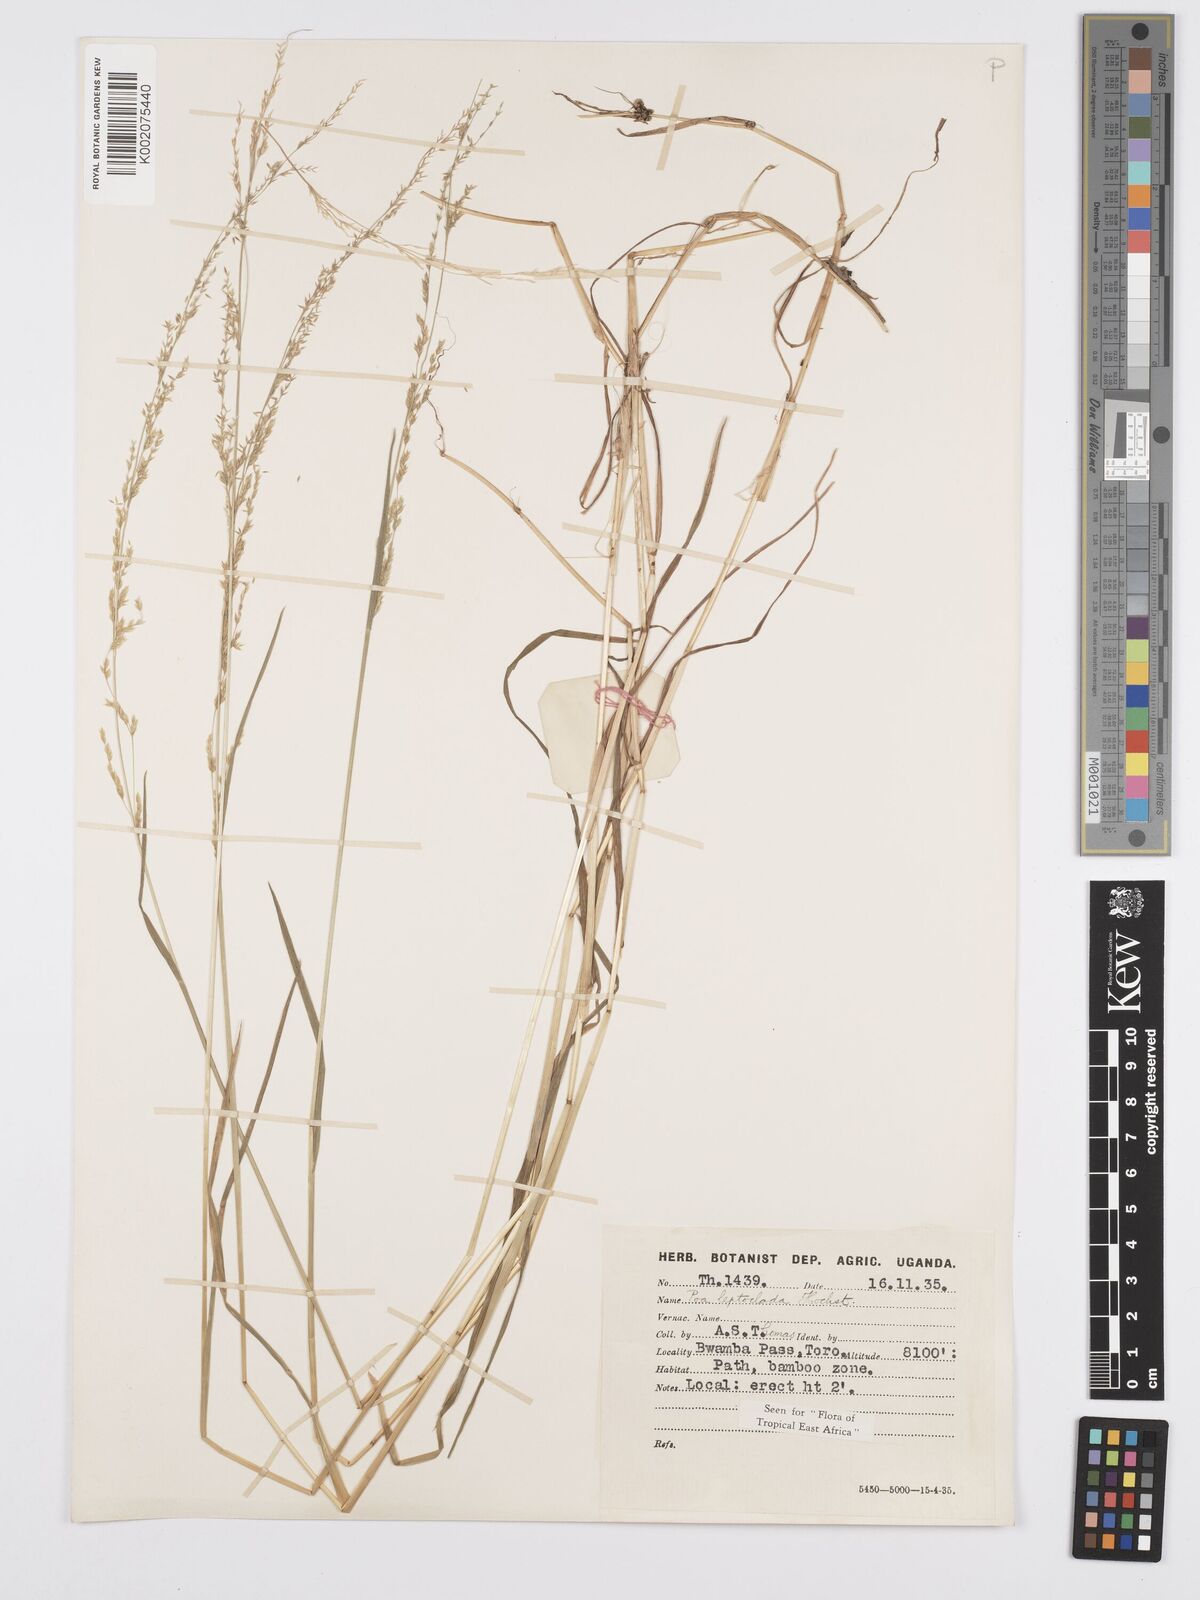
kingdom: Plantae
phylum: Tracheophyta
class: Liliopsida
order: Poales
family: Poaceae
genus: Poa
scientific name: Poa
